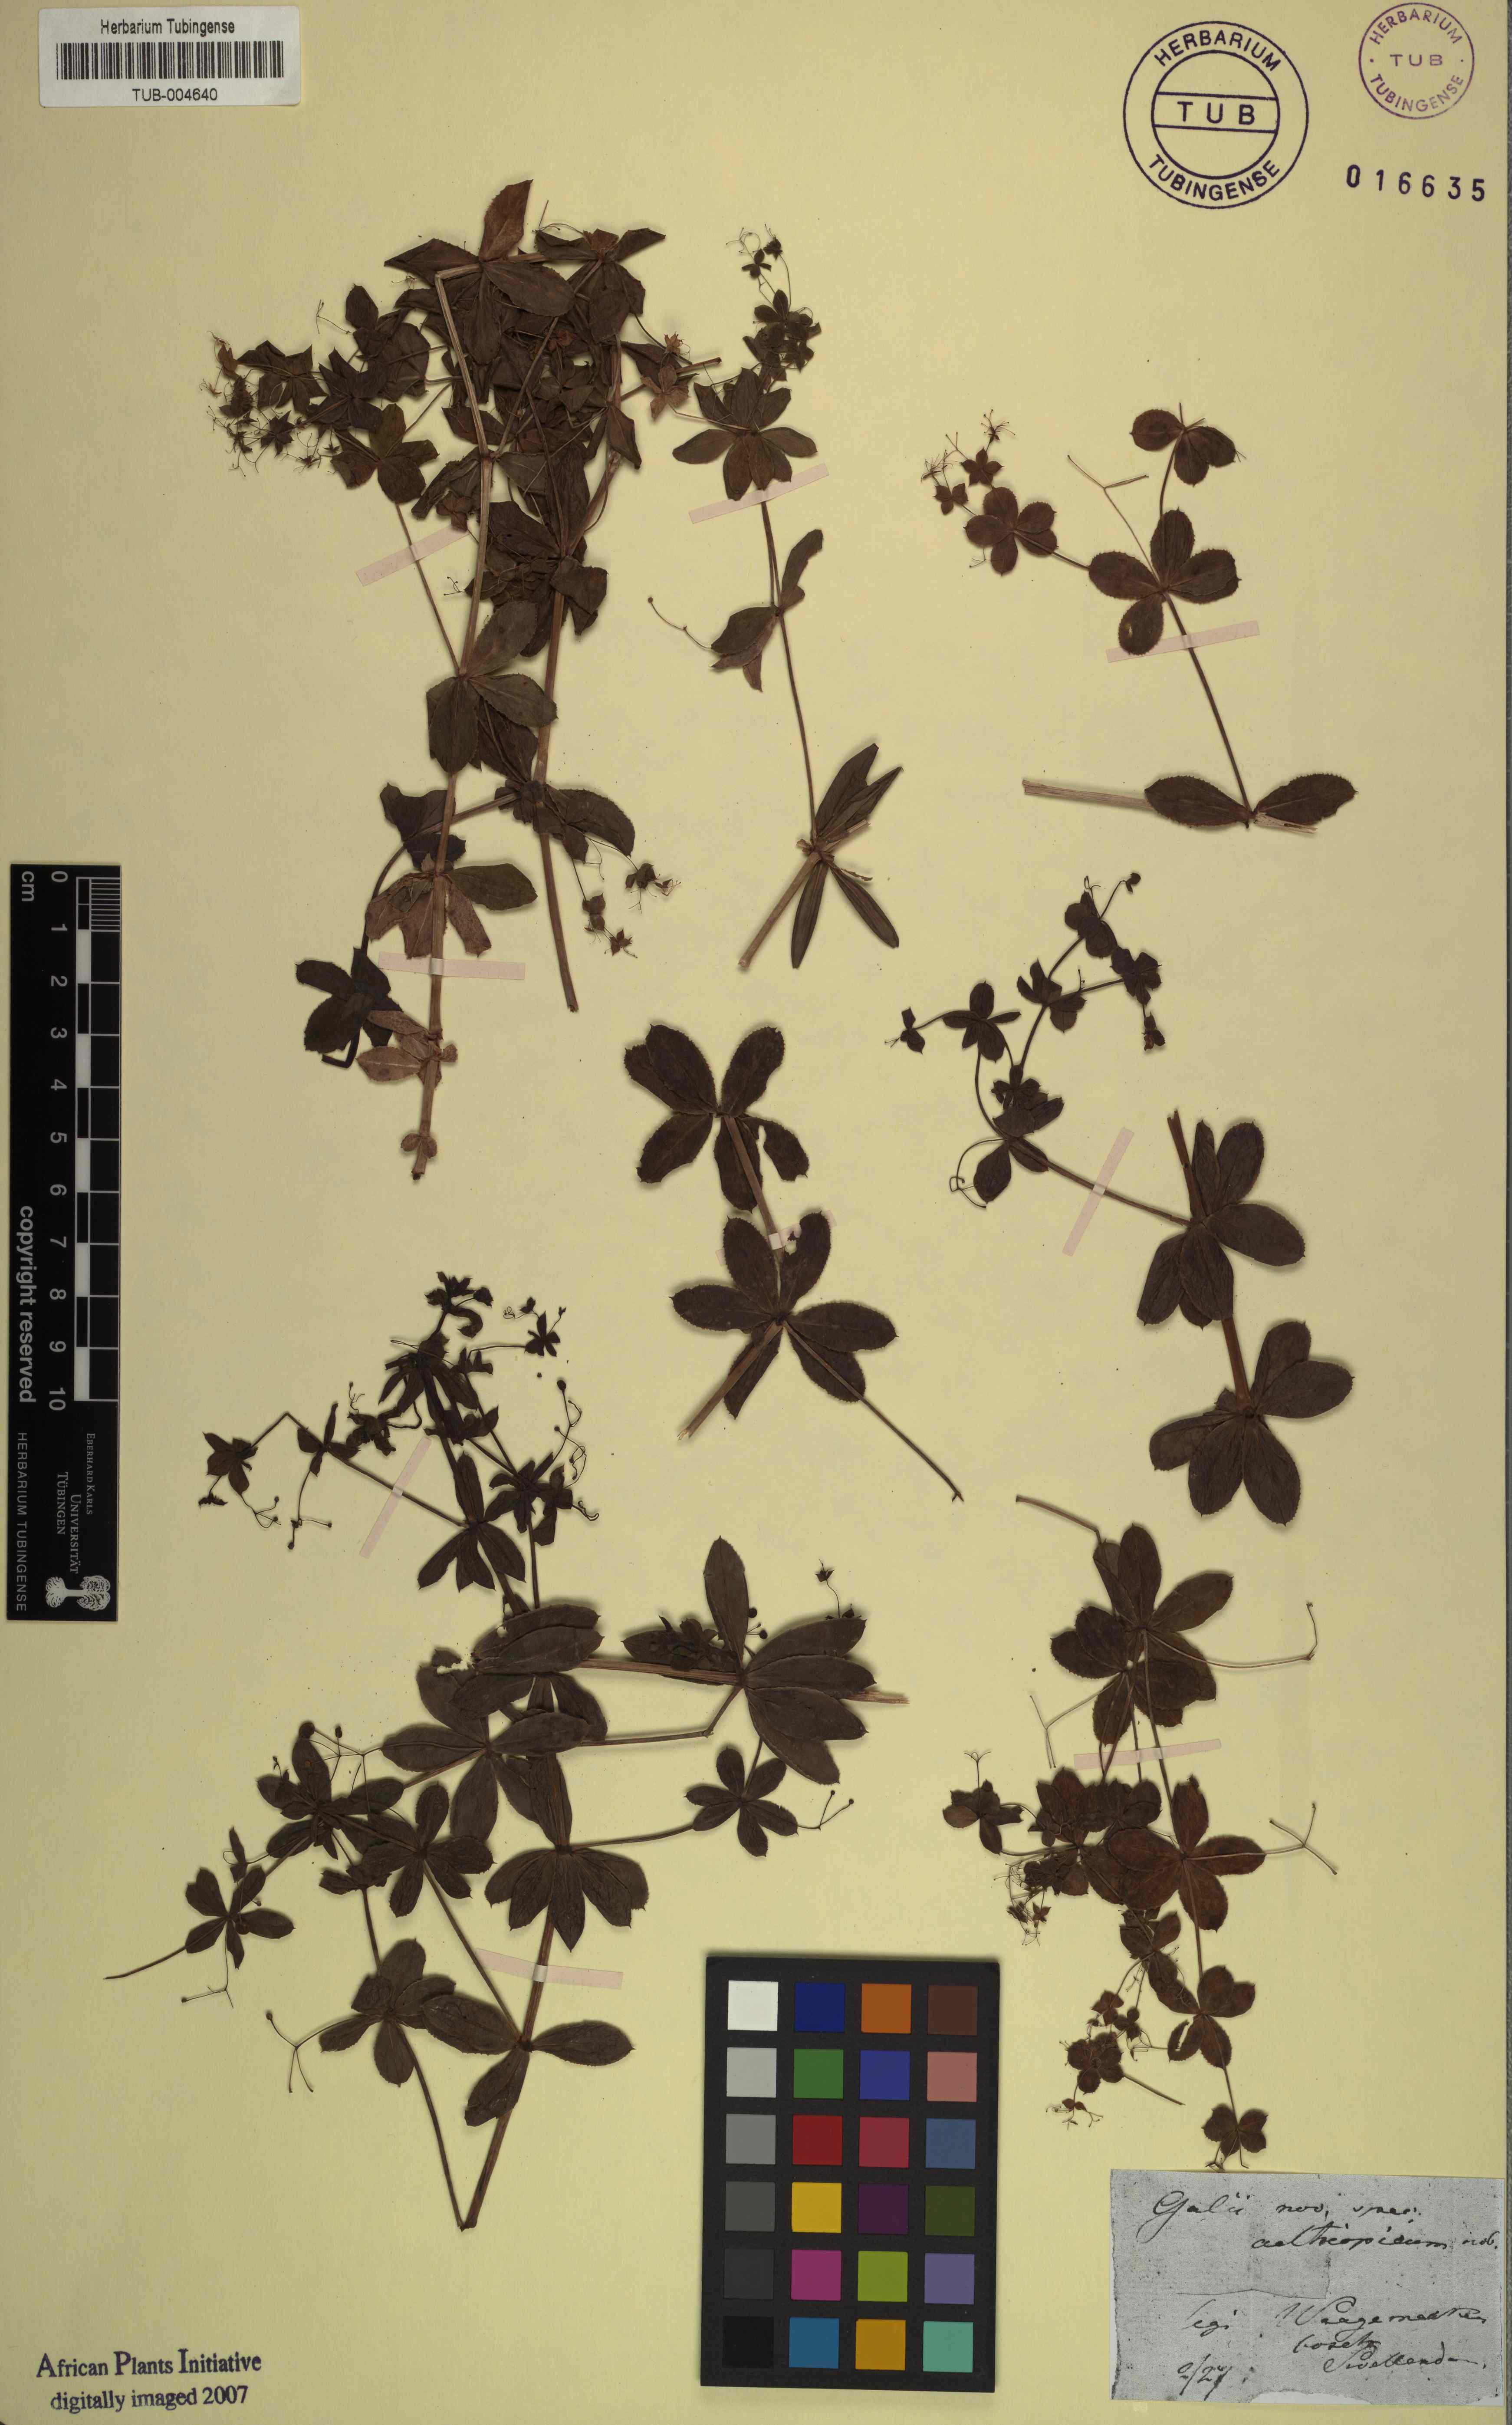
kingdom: Plantae
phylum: Tracheophyta
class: Magnoliopsida
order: Gentianales
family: Rubiaceae
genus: Galium
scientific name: Galium
